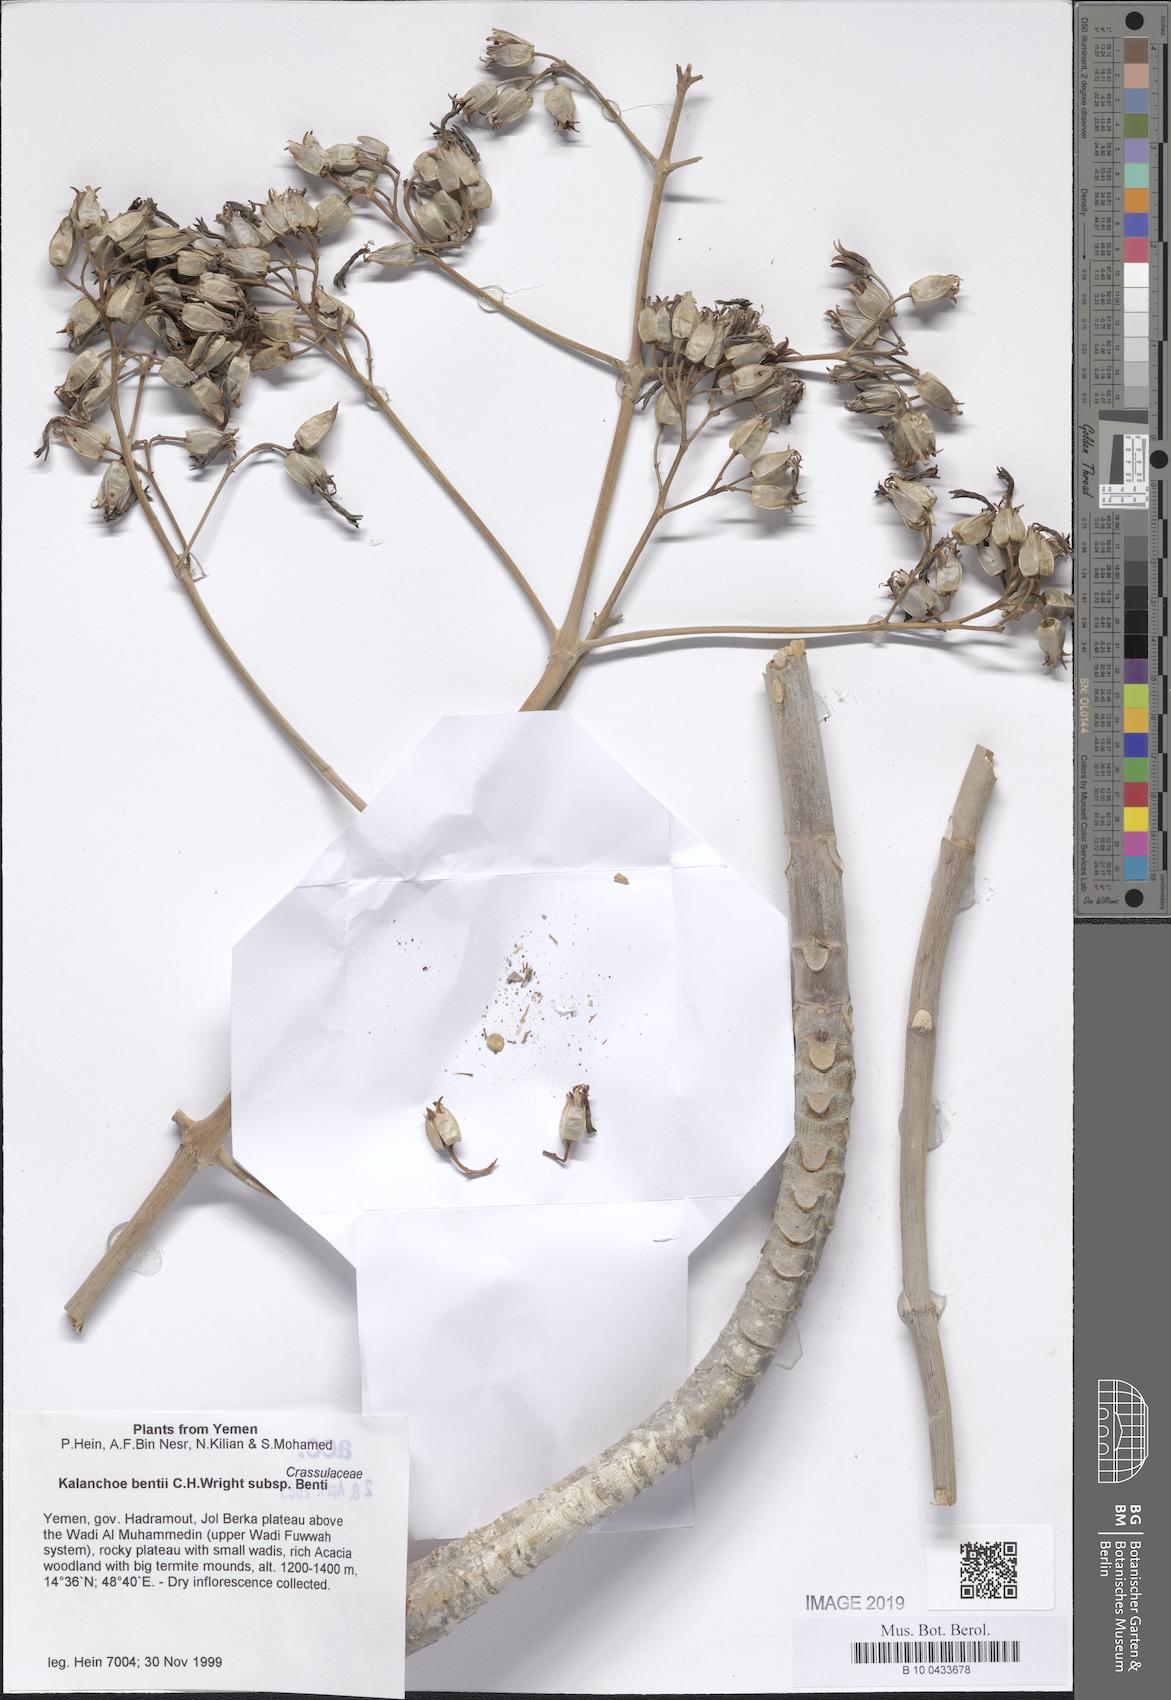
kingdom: Plantae
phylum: Tracheophyta
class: Magnoliopsida
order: Saxifragales
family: Crassulaceae
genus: Kalanchoe
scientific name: Kalanchoe bentii
